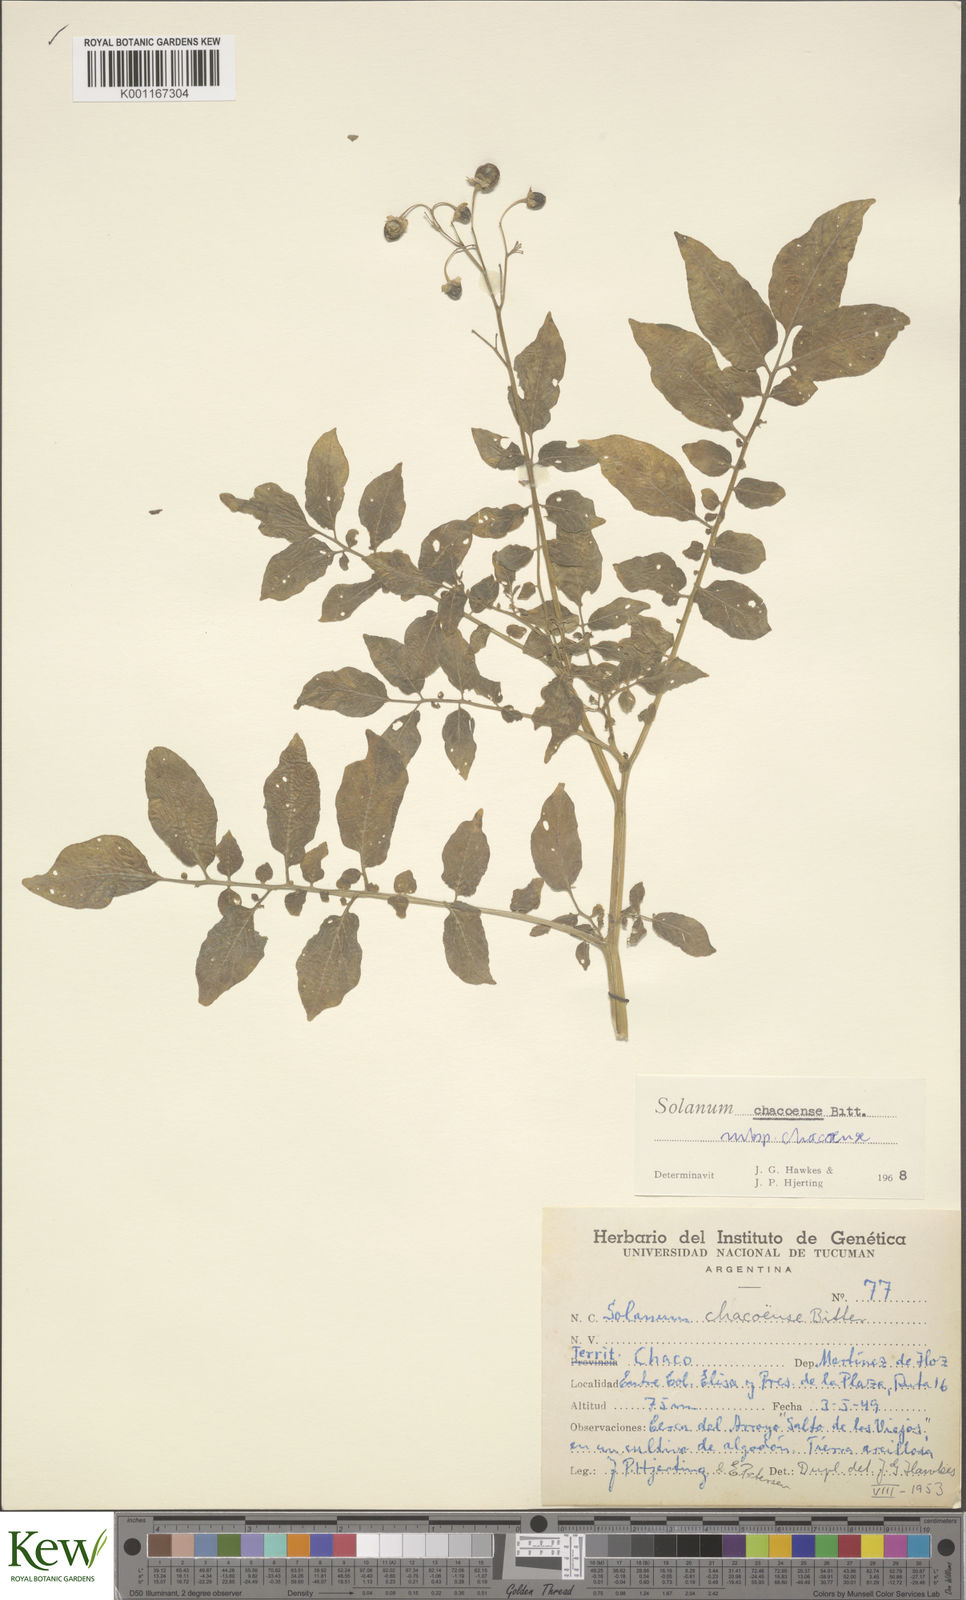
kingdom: Plantae
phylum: Tracheophyta
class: Magnoliopsida
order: Solanales
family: Solanaceae
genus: Solanum
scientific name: Solanum chacoense
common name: Chaco potato
